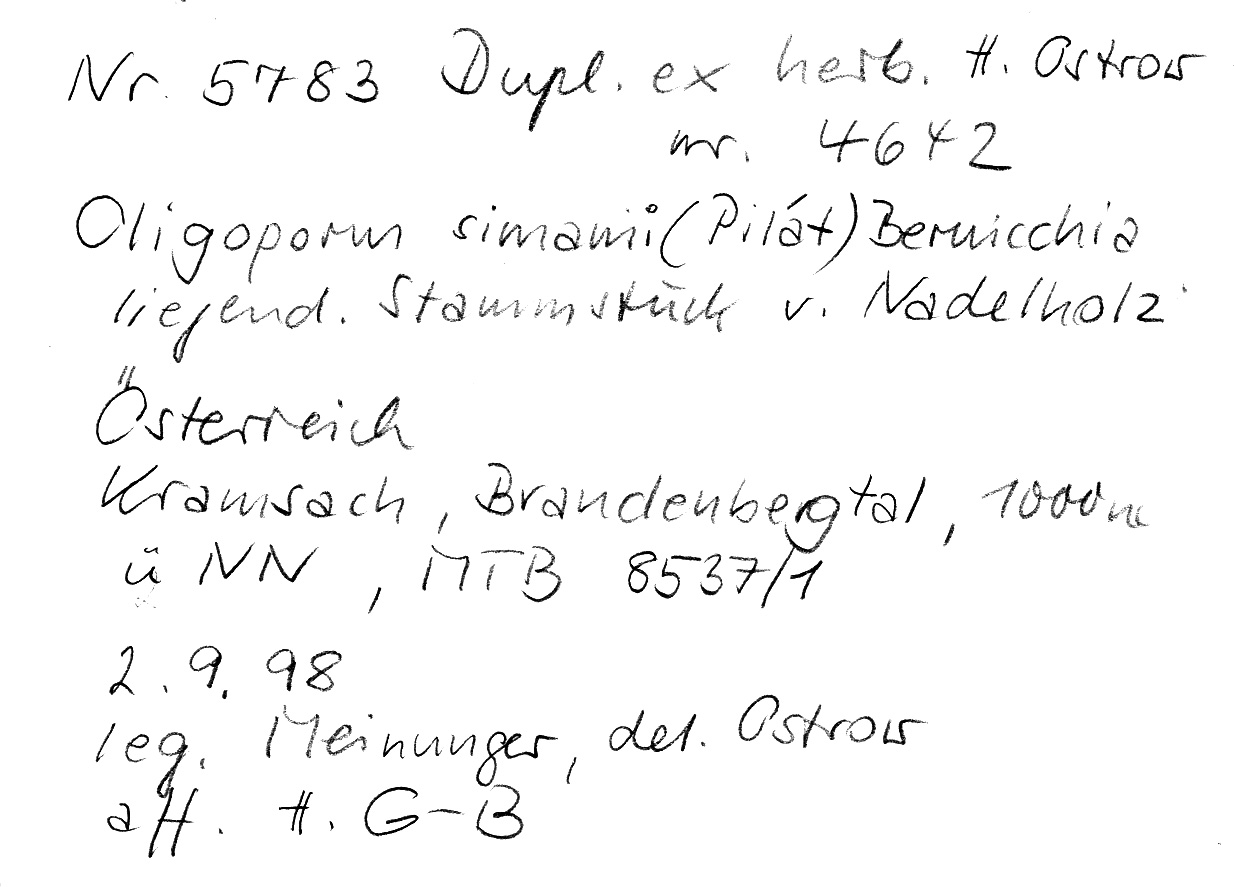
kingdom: Fungi
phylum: Basidiomycota
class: Agaricomycetes
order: Polyporales
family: Dacryobolaceae
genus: Postia
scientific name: Postia simanii
